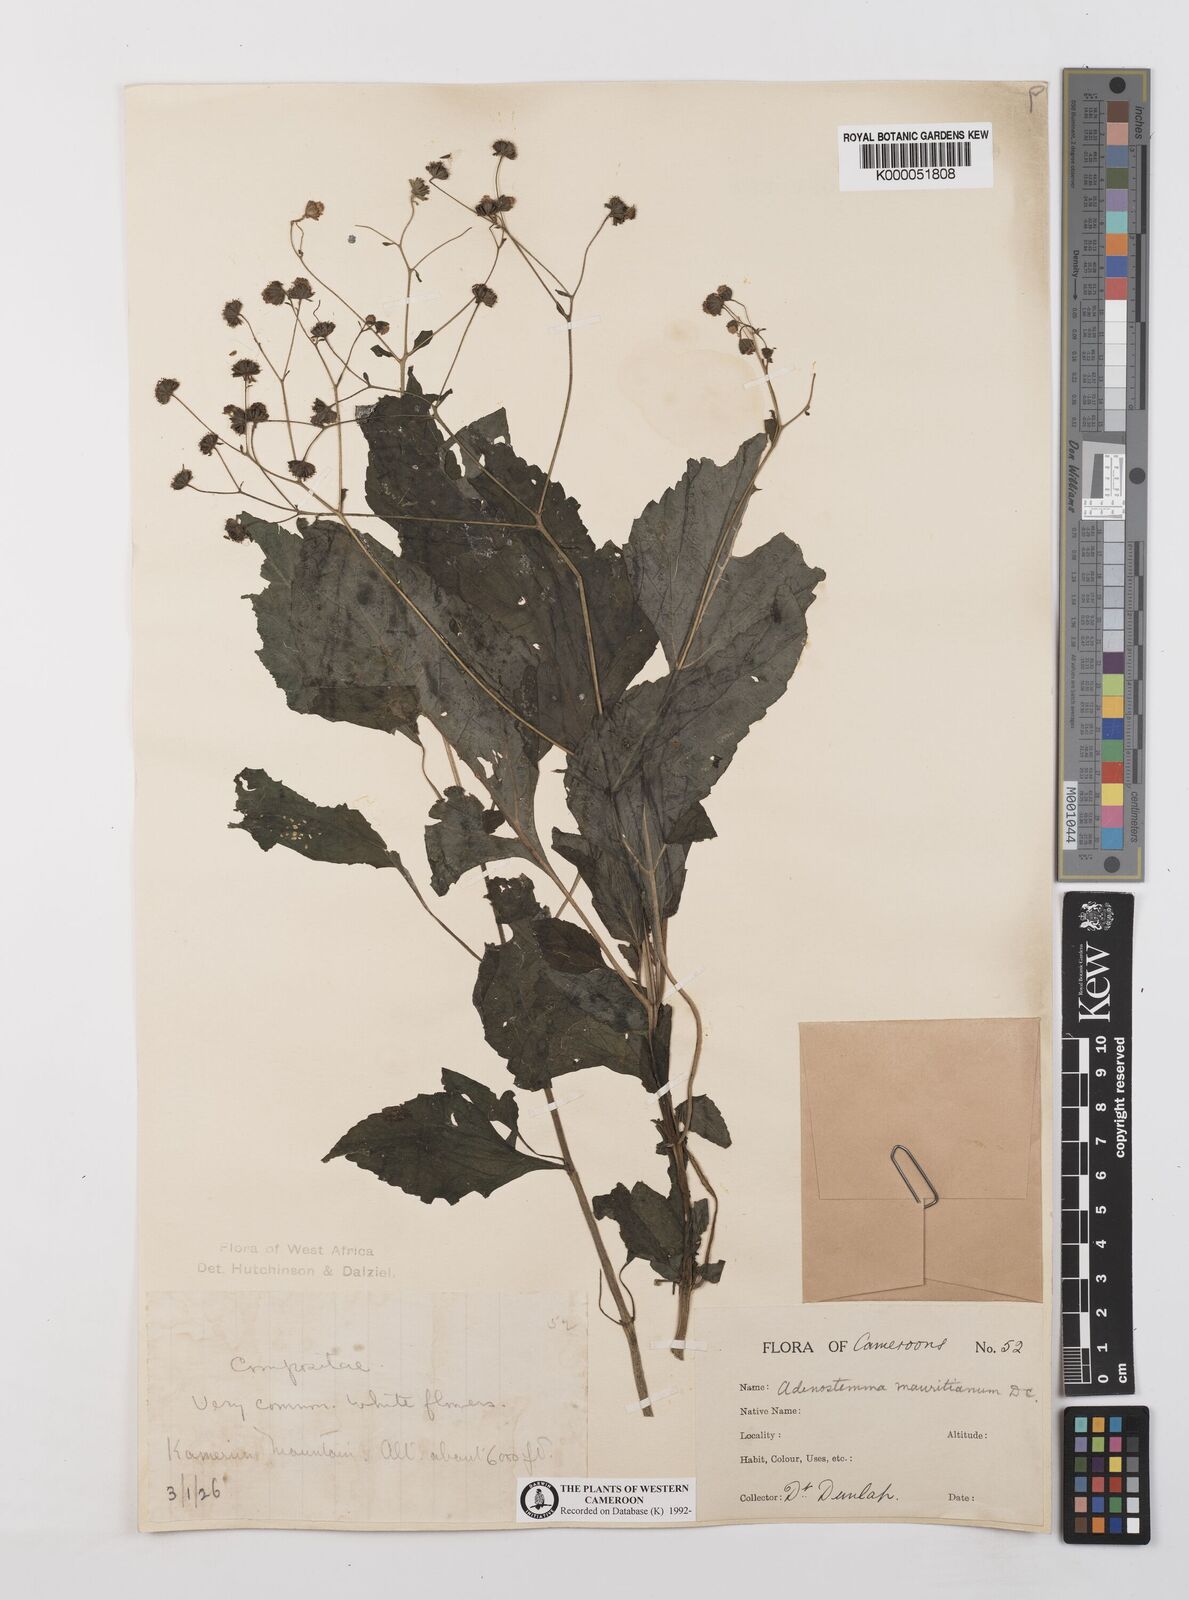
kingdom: Plantae
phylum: Tracheophyta
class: Magnoliopsida
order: Asterales
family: Asteraceae
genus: Adenostemma
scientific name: Adenostemma mauritianum
